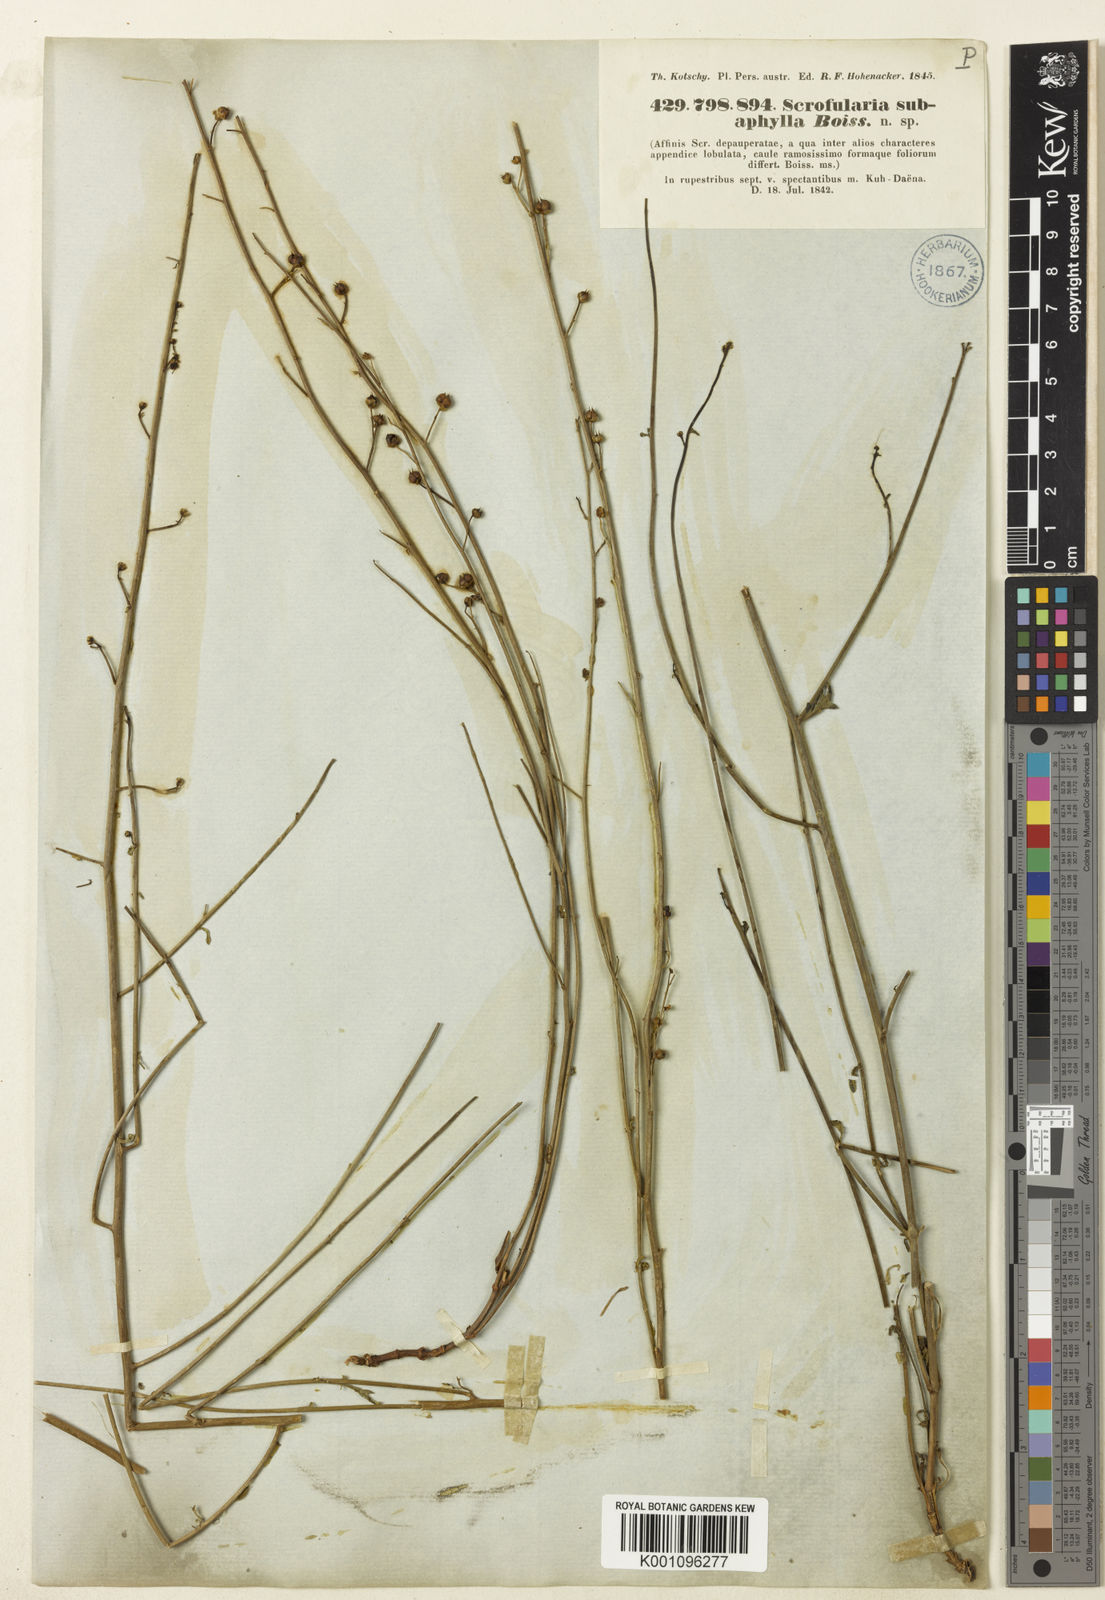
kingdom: Plantae
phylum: Tracheophyta
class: Magnoliopsida
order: Lamiales
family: Scrophulariaceae
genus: Scrophularia
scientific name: Scrophularia subaphylla
